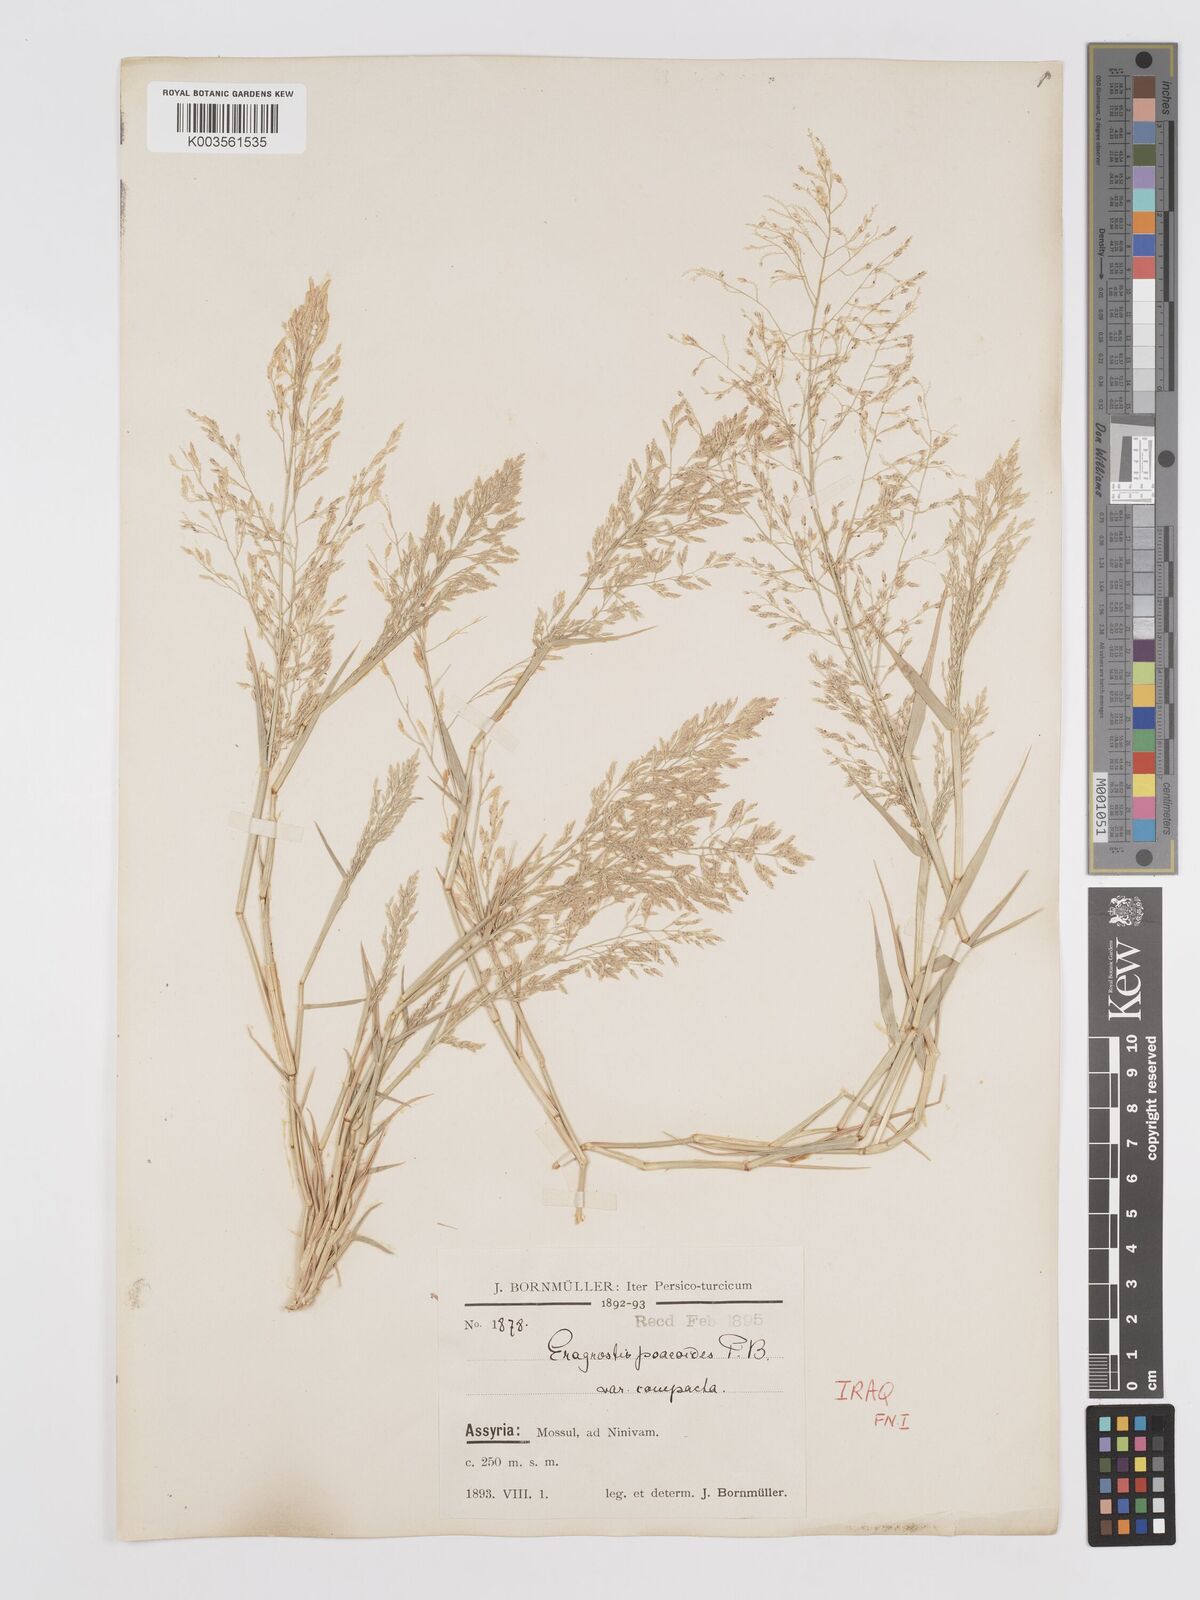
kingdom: Plantae
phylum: Tracheophyta
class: Liliopsida
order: Poales
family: Poaceae
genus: Eragrostis
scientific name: Eragrostis minor
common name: Small love-grass
